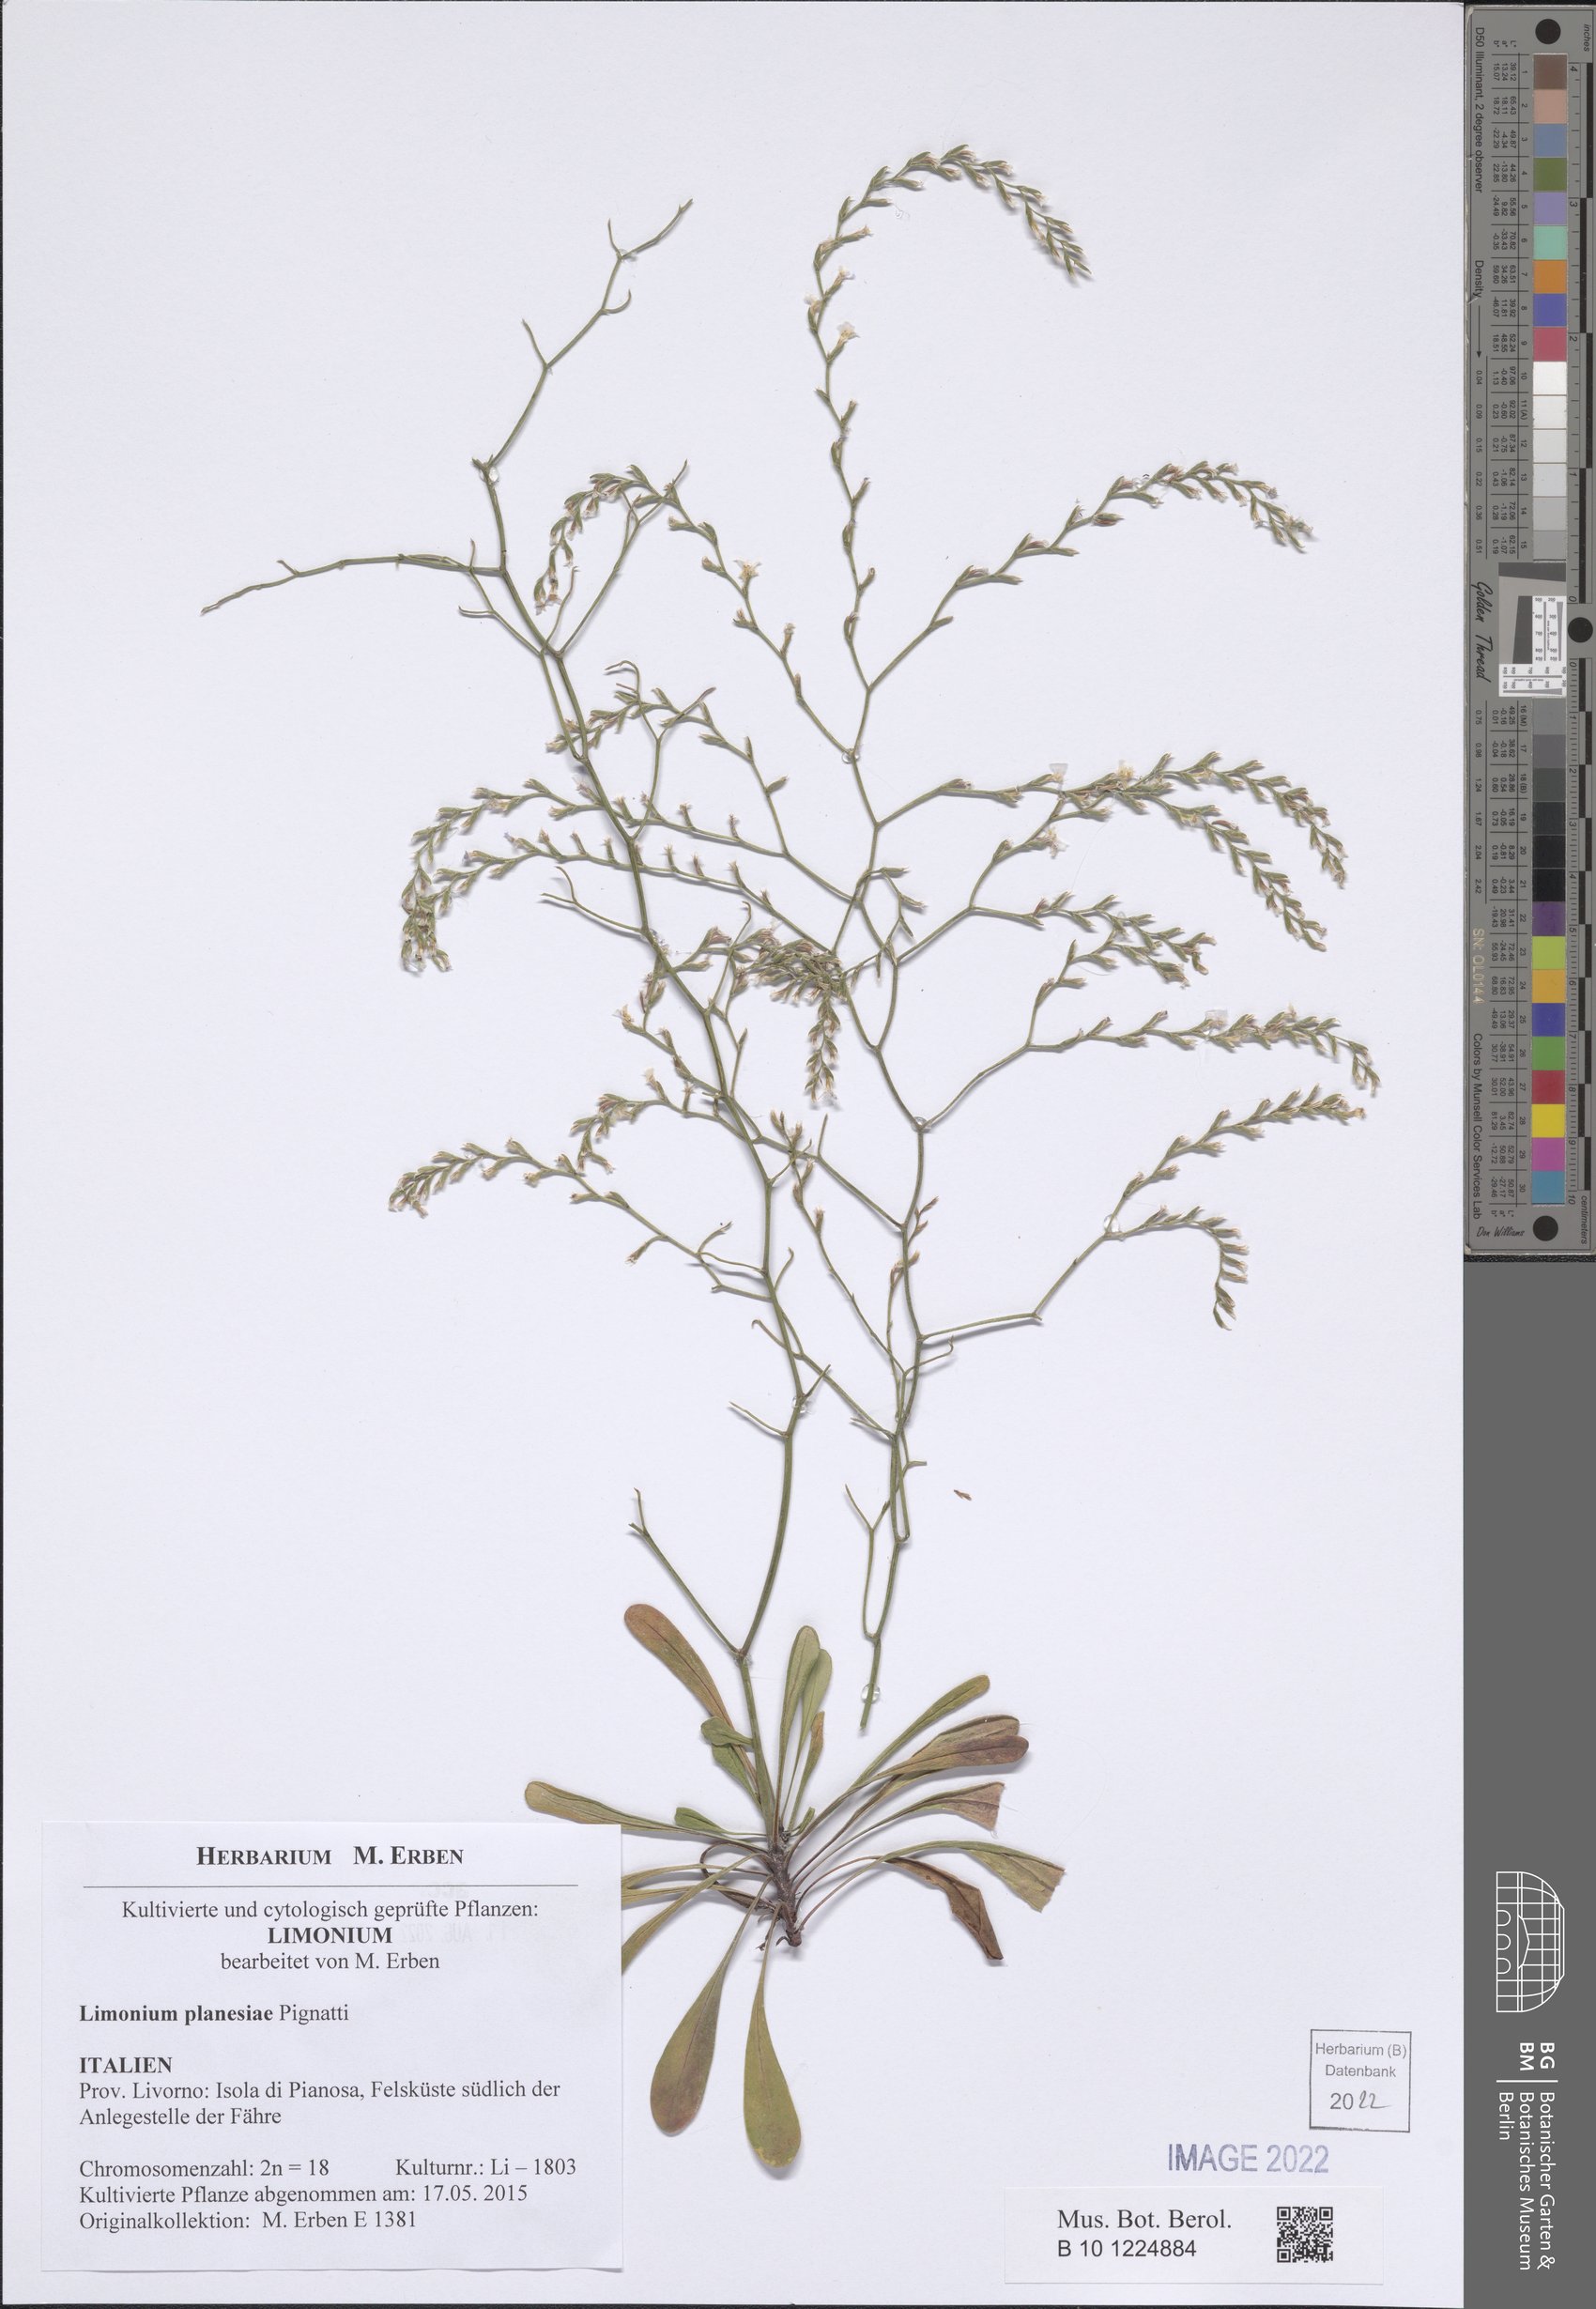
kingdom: Plantae
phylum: Tracheophyta
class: Magnoliopsida
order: Caryophyllales
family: Plumbaginaceae
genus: Limonium
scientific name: Limonium planesiae
